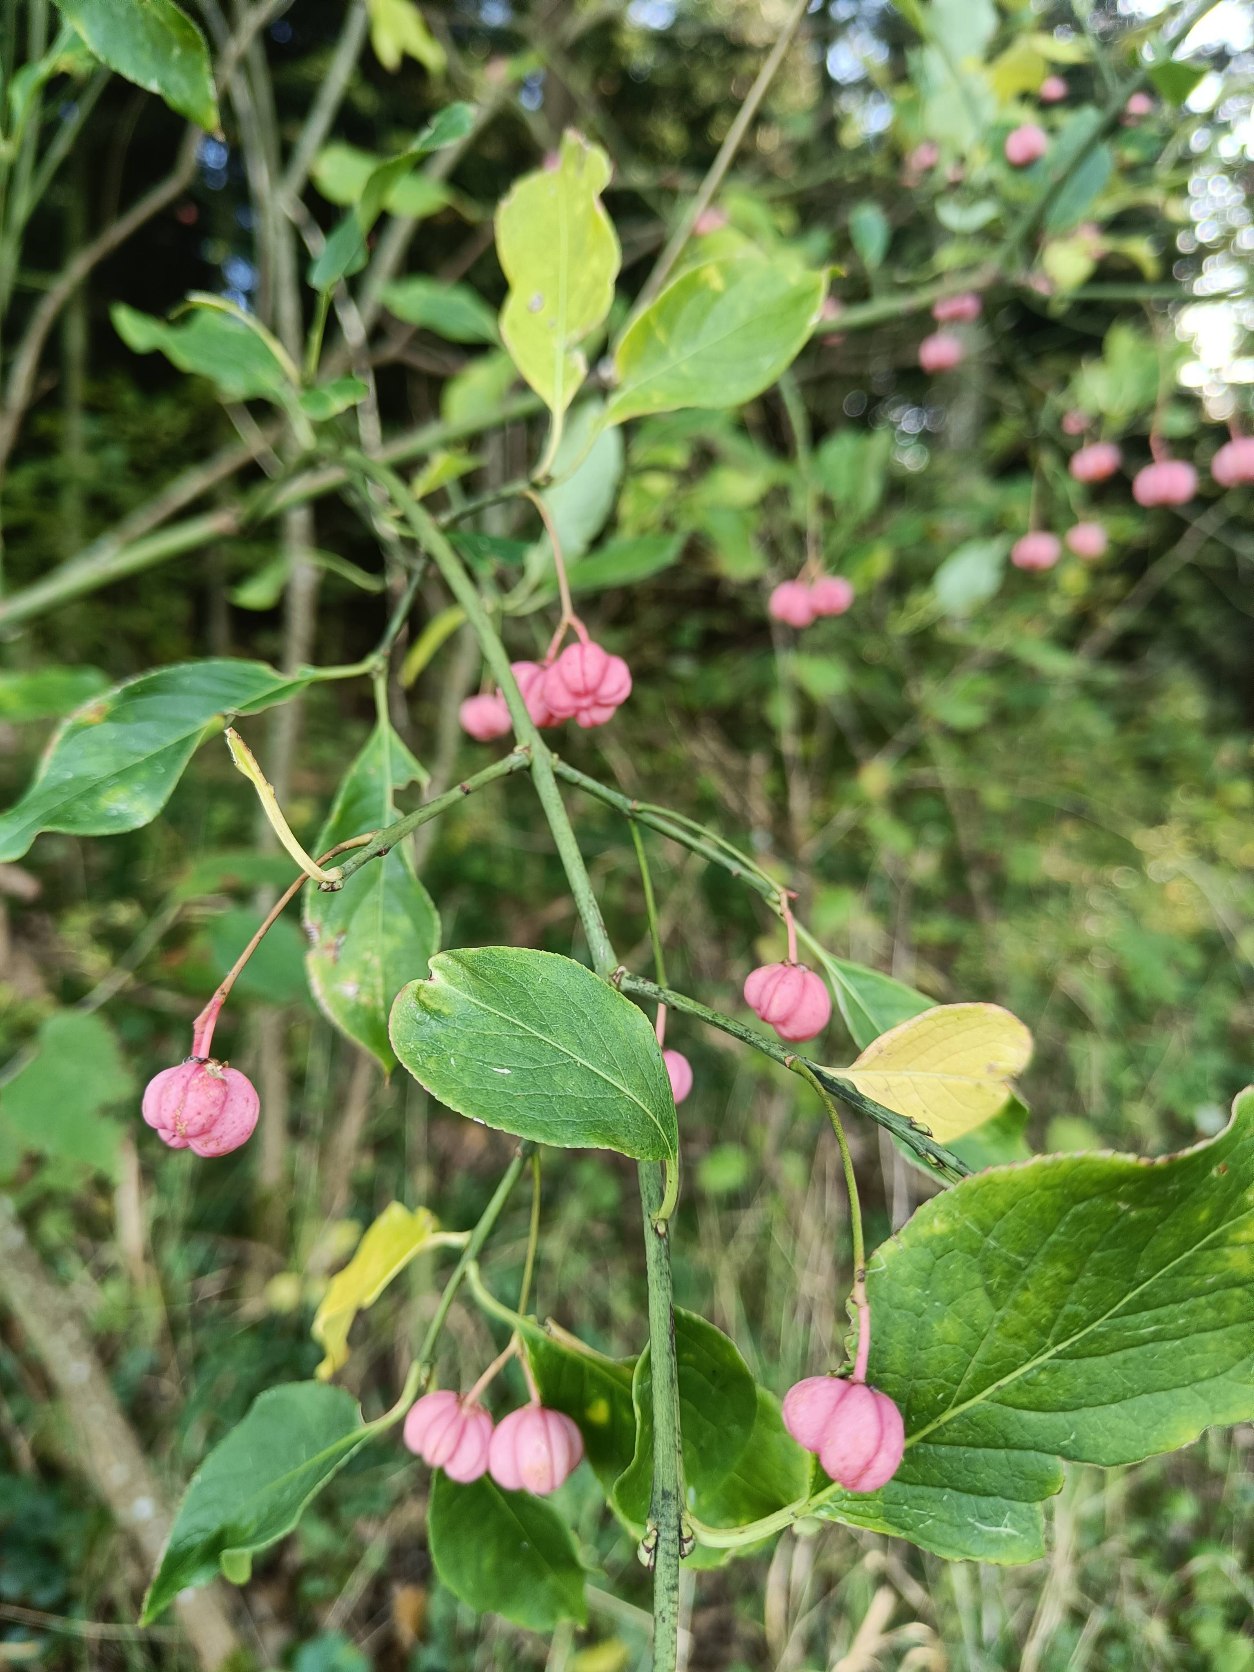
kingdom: Plantae
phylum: Tracheophyta
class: Magnoliopsida
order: Celastrales
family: Celastraceae
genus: Euonymus
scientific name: Euonymus europaeus
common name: Benved
